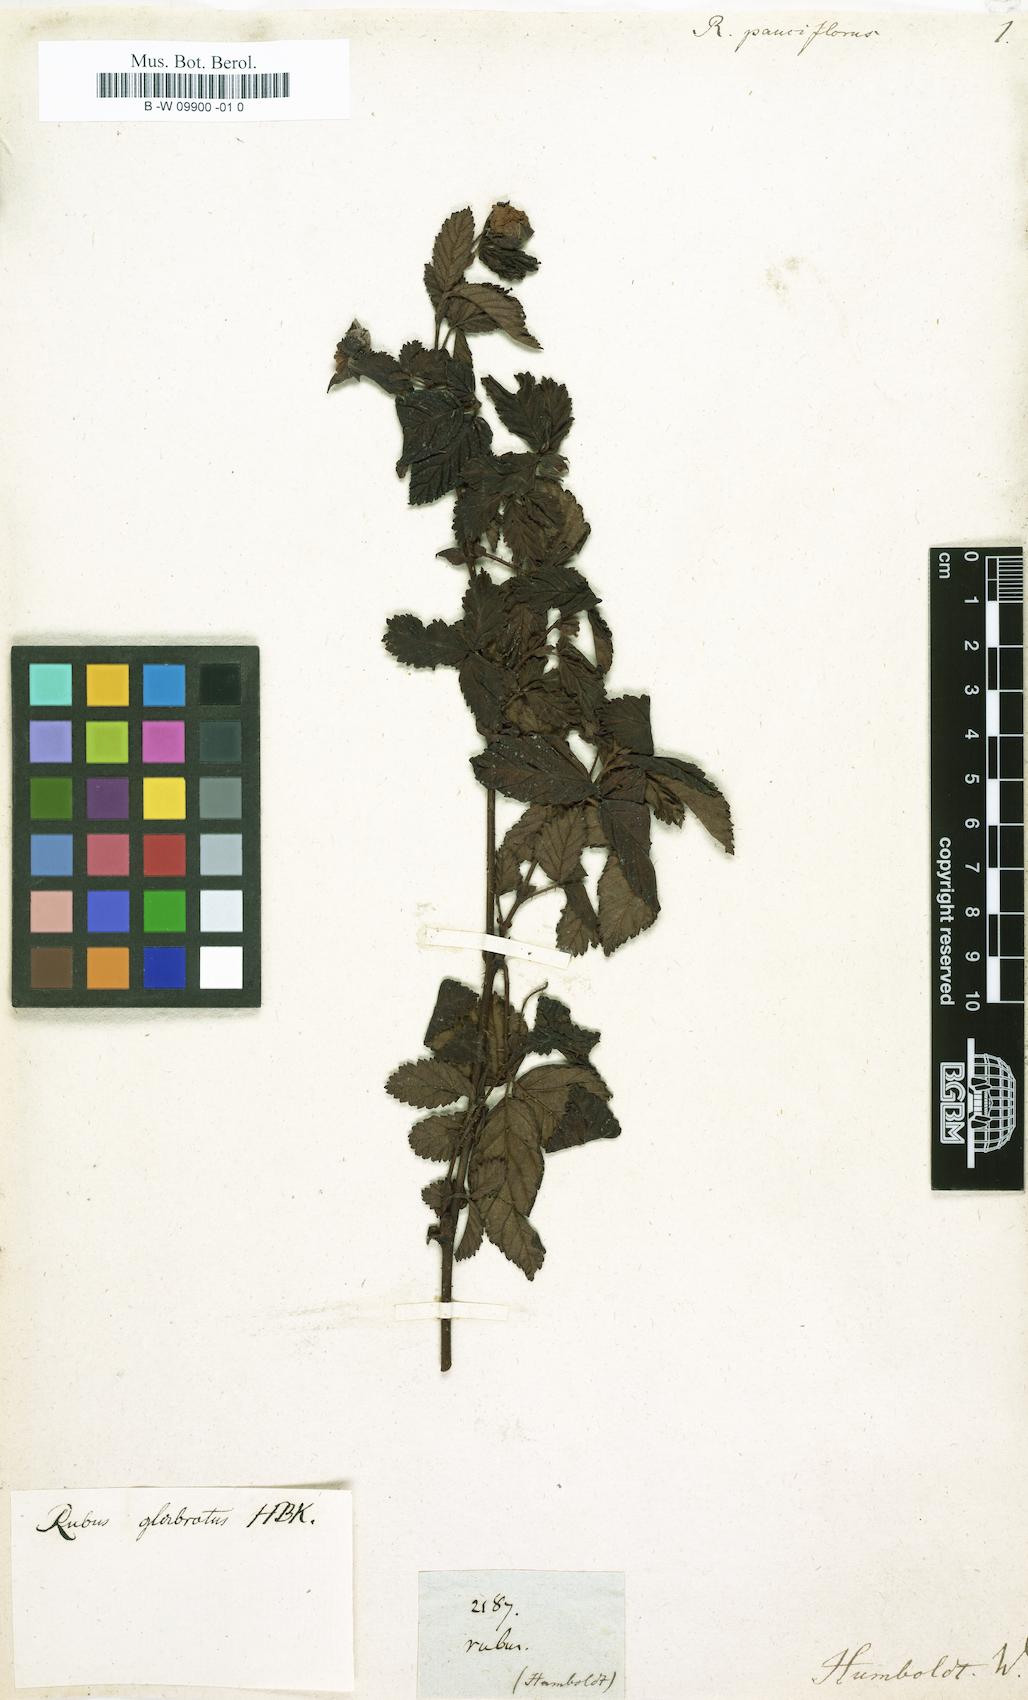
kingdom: Plantae
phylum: Tracheophyta
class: Magnoliopsida
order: Rosales
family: Rosaceae
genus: Rubus
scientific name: Rubus pauciflorus
